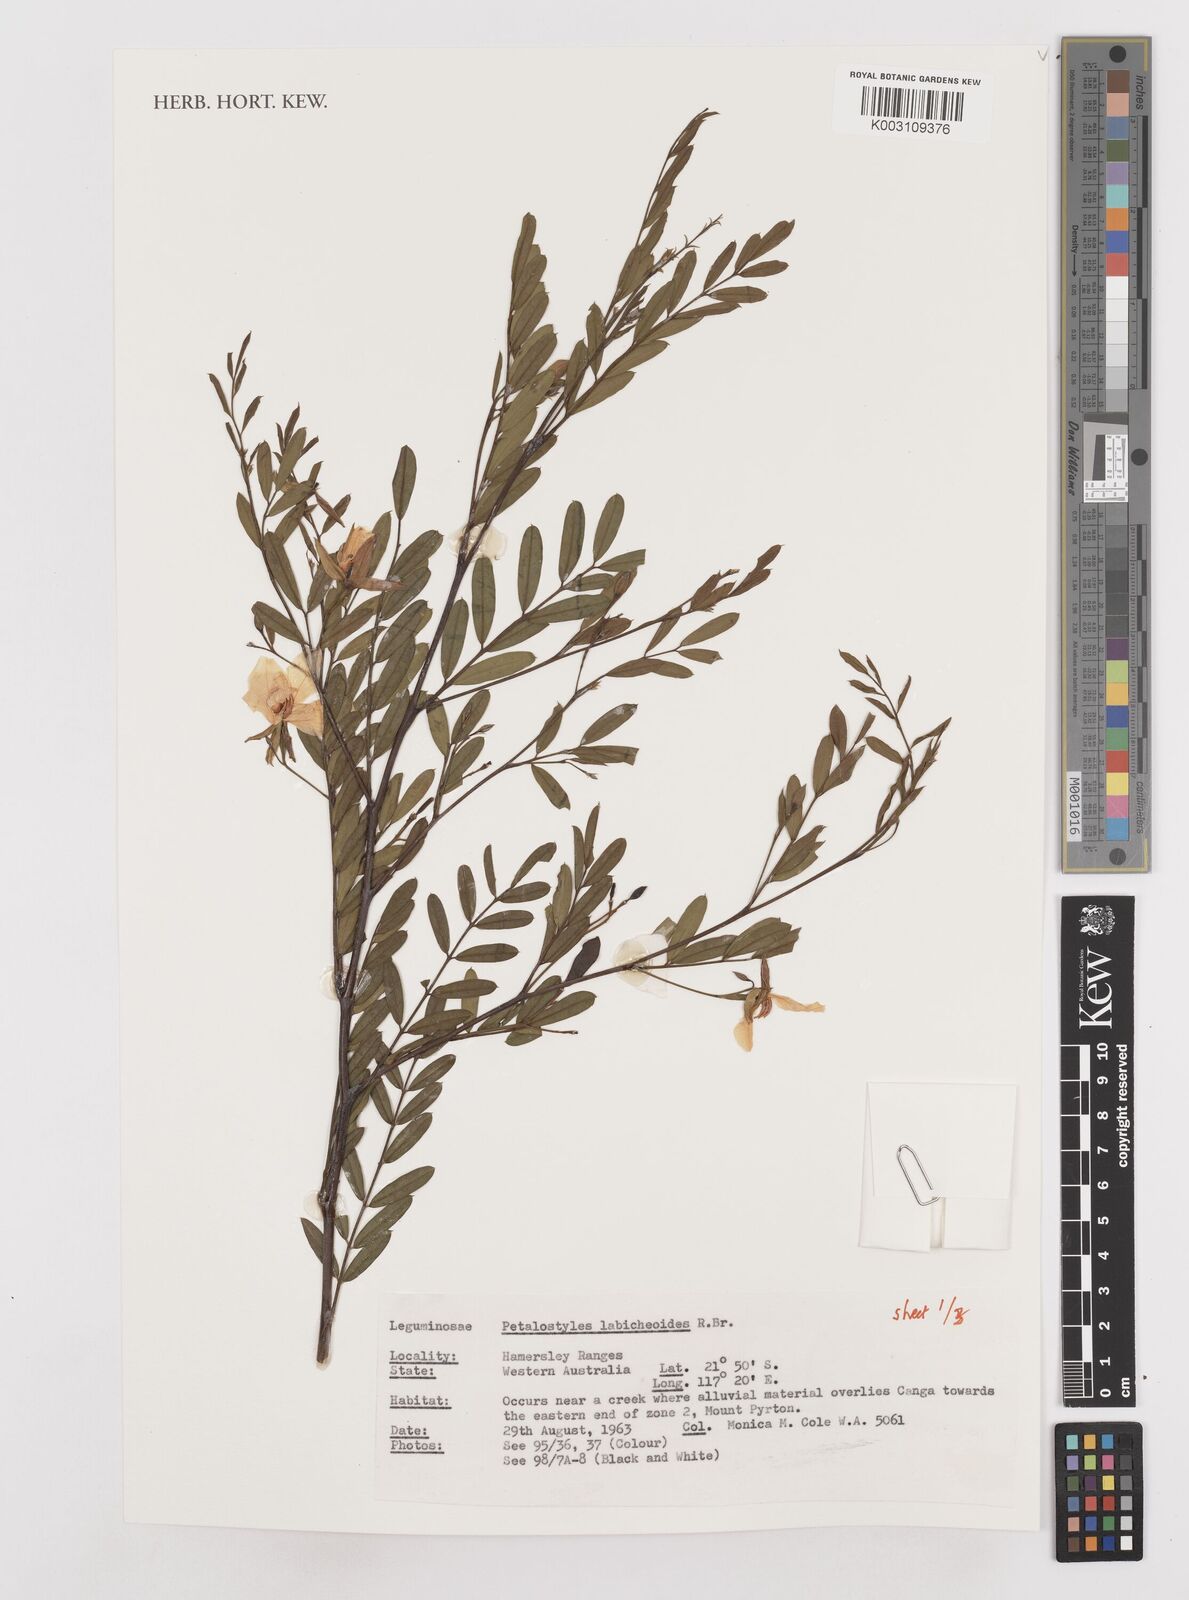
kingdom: Plantae
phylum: Tracheophyta
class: Magnoliopsida
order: Fabales
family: Fabaceae
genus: Petalostylis
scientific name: Petalostylis labicheoides
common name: Butterfly bush
